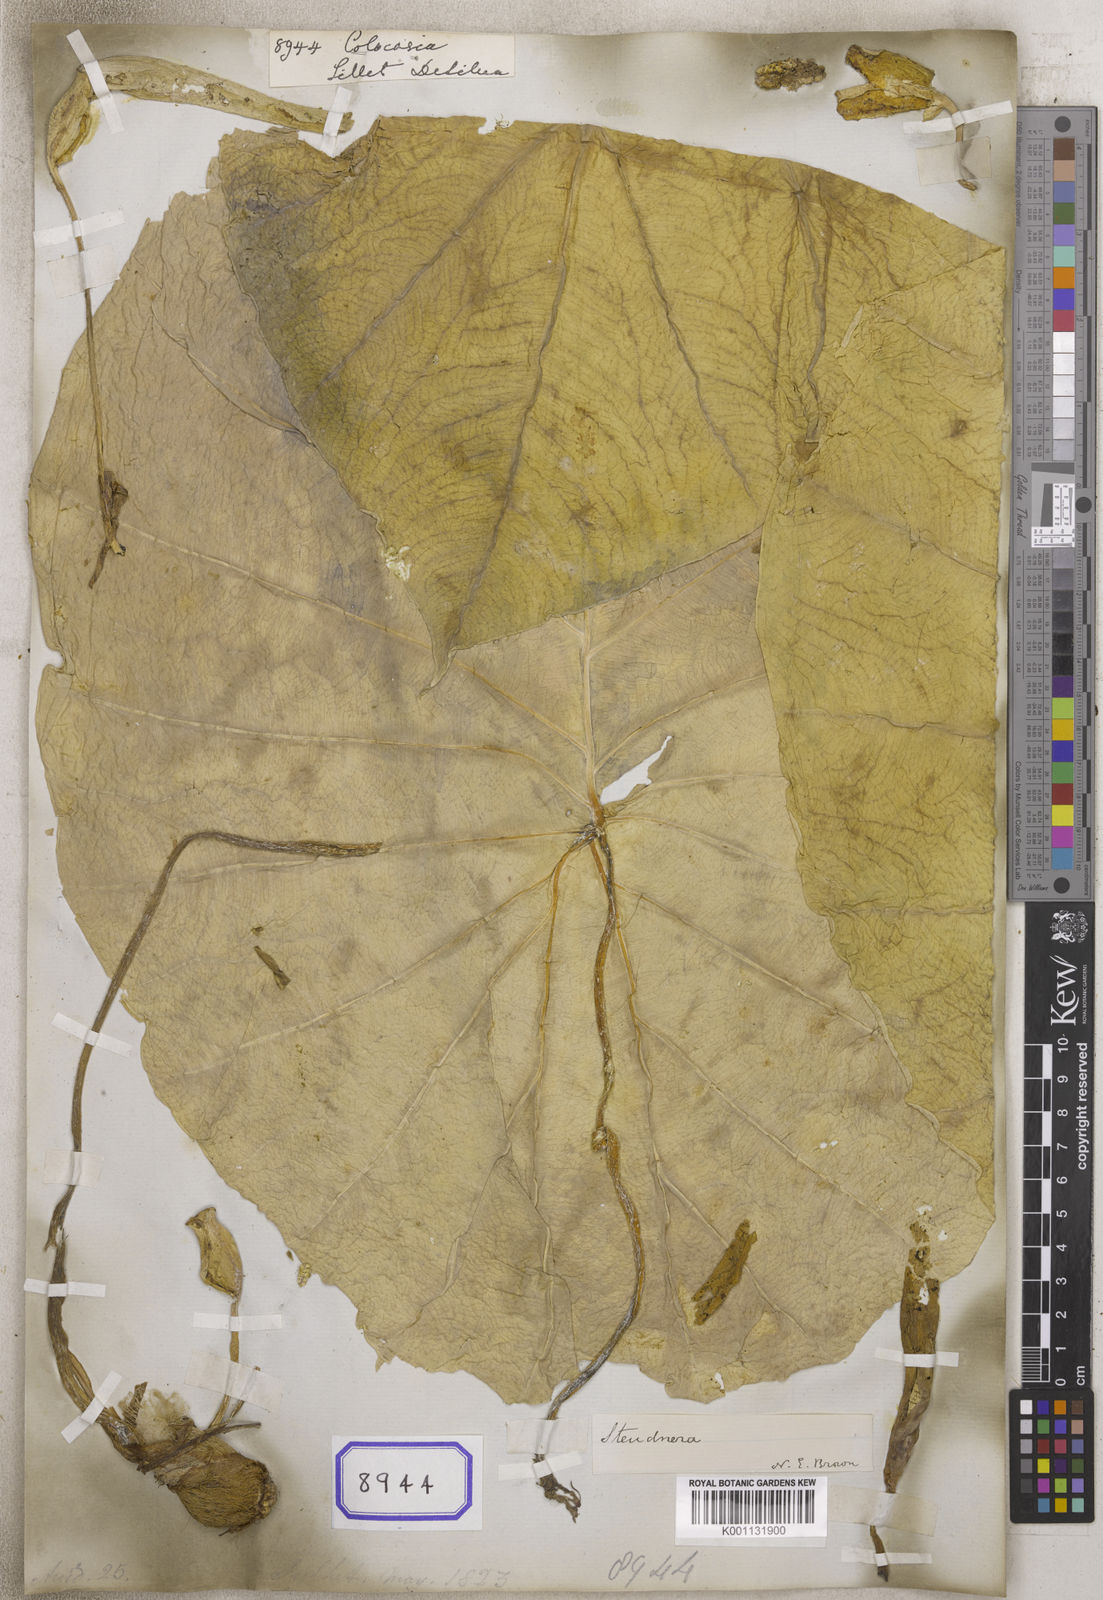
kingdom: Plantae
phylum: Tracheophyta
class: Liliopsida
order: Alismatales
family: Araceae
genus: Colocasia
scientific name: Colocasia spec
